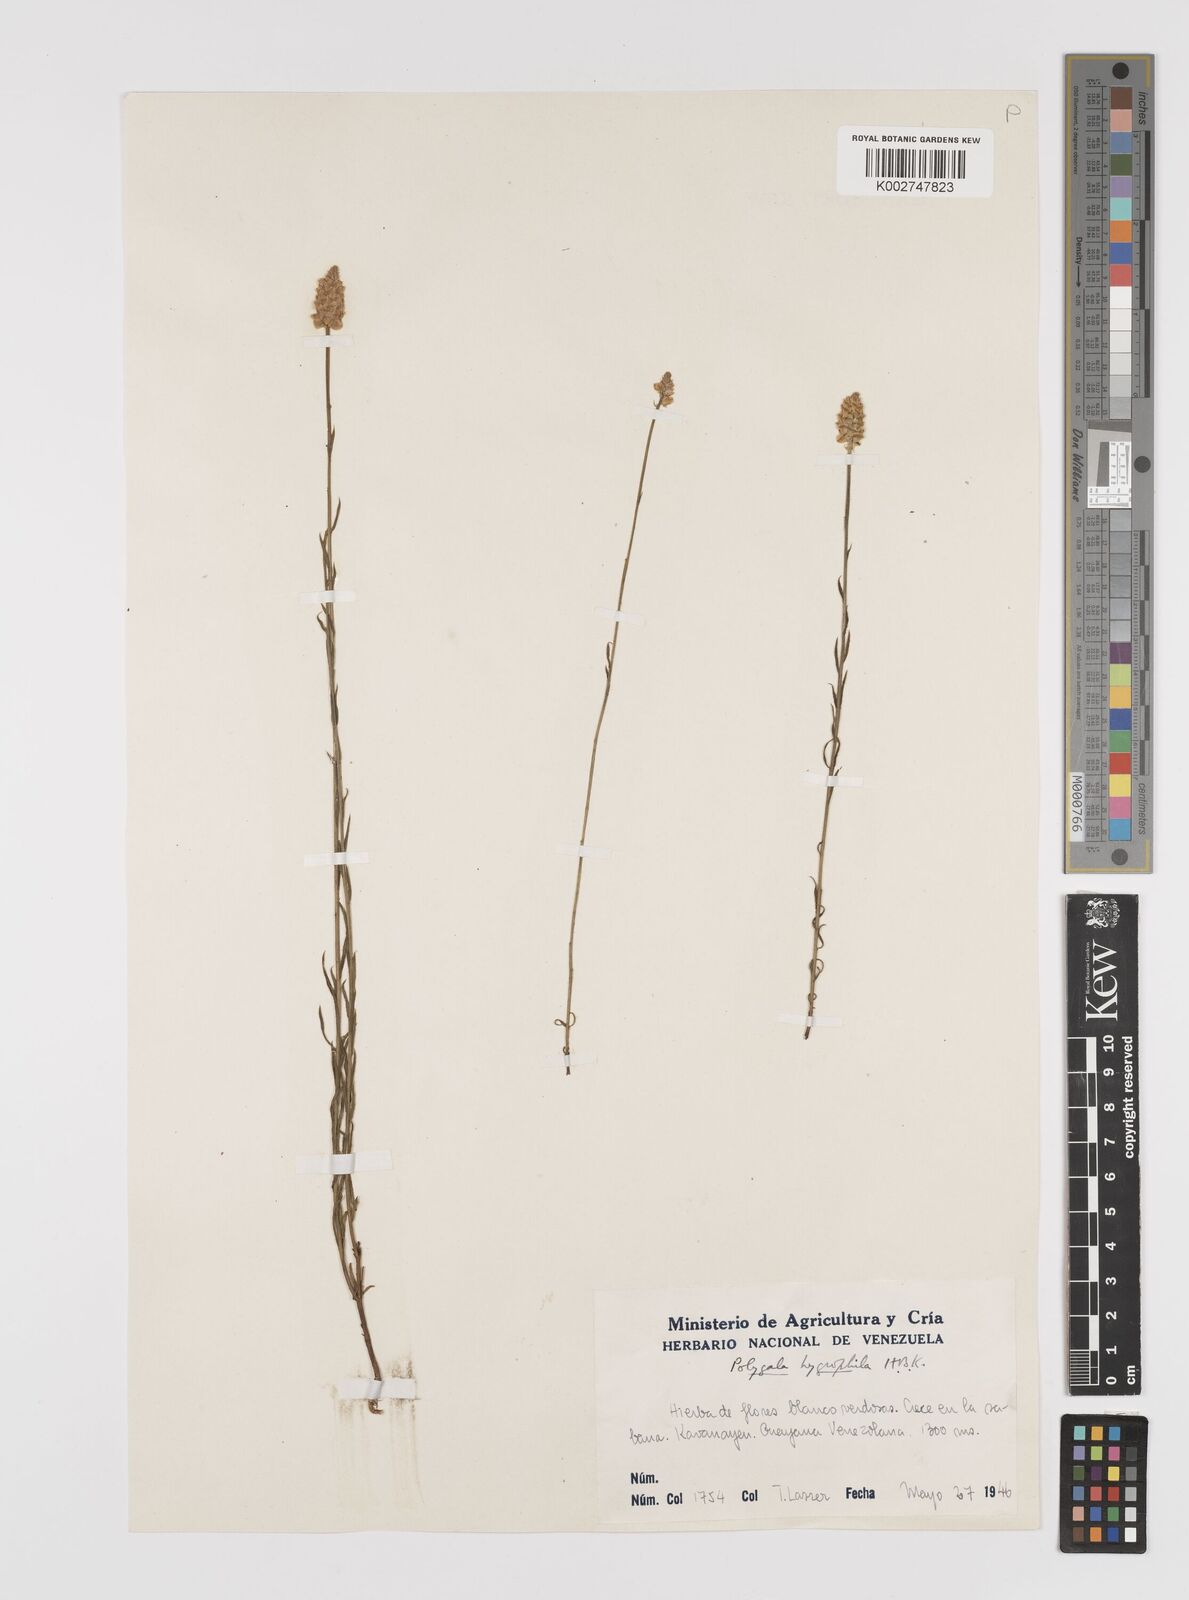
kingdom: Plantae
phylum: Tracheophyta
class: Magnoliopsida
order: Fabales
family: Polygalaceae
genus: Polygala
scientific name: Polygala hygrophila
